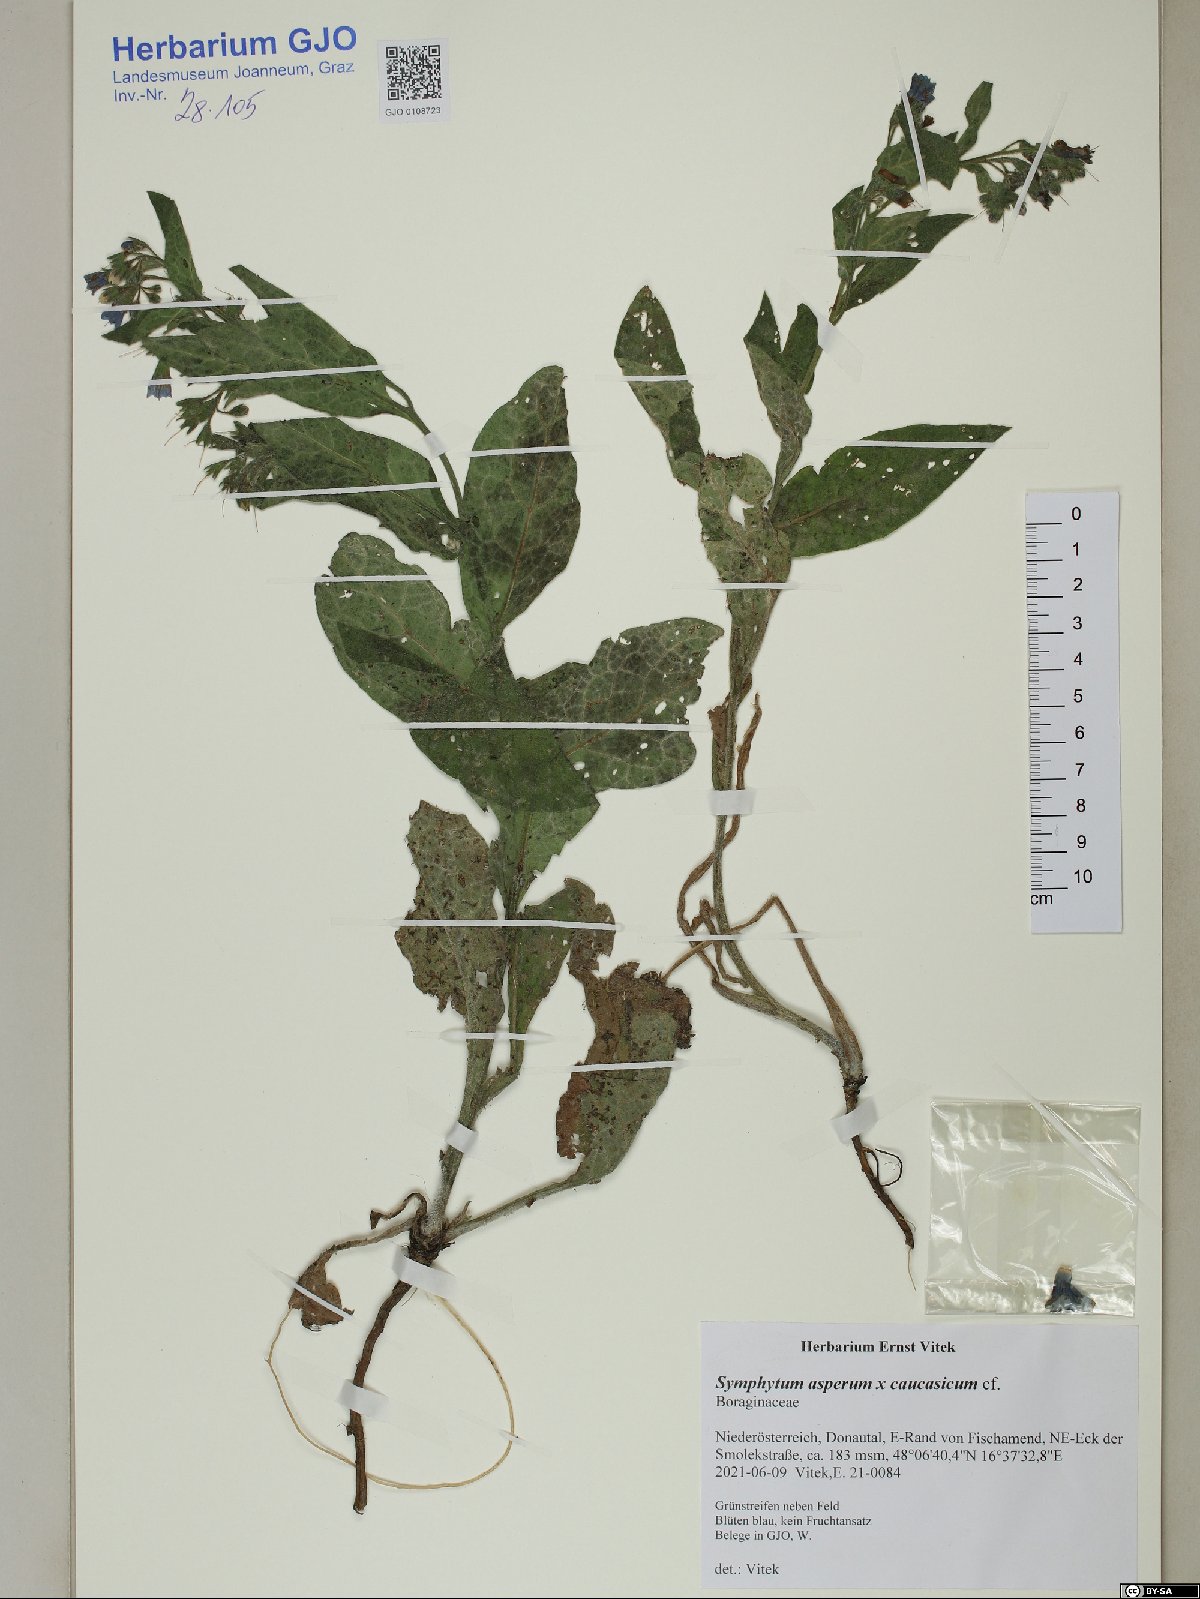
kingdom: Plantae
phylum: Tracheophyta
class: Magnoliopsida
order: Boraginales
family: Boraginaceae
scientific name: Boraginaceae
